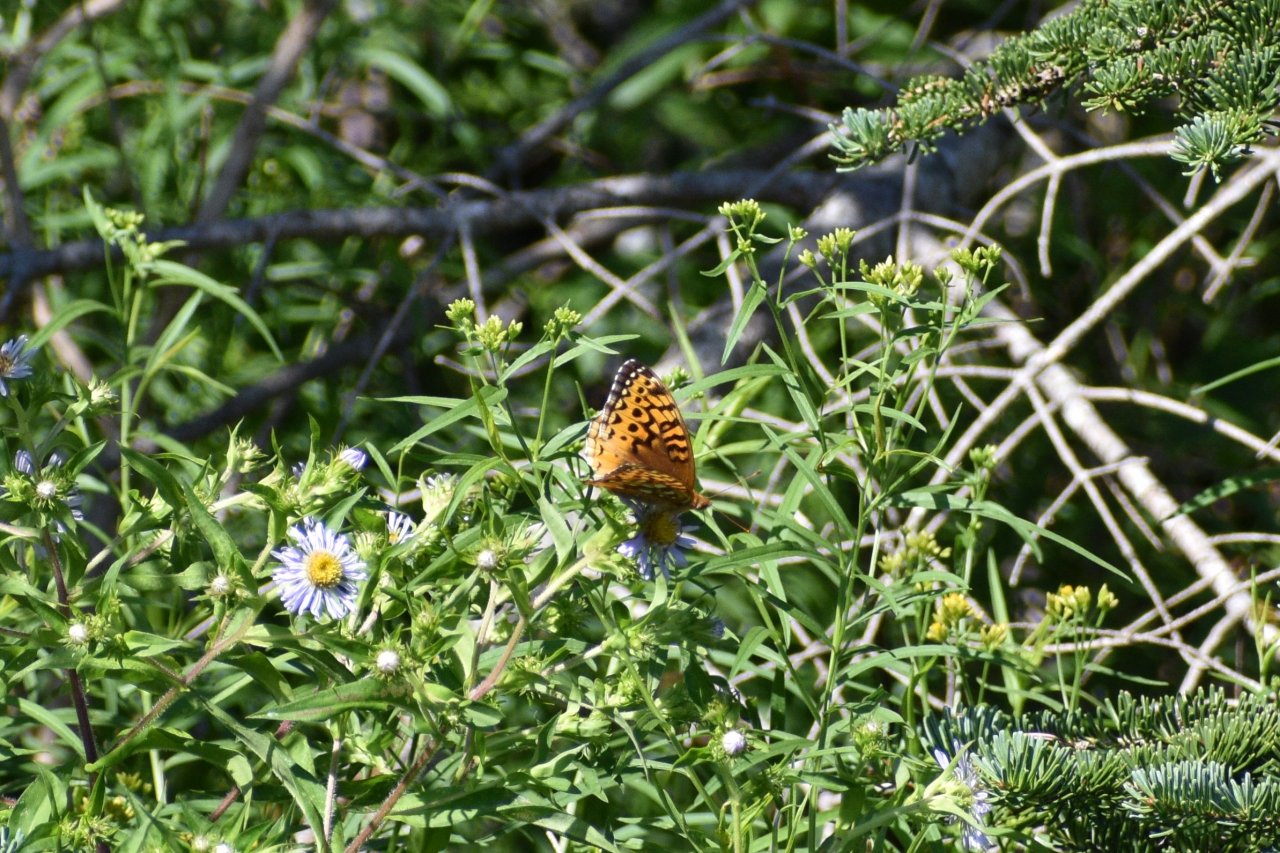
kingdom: Animalia
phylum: Arthropoda
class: Insecta
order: Lepidoptera
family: Nymphalidae
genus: Speyeria
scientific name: Speyeria cybele
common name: Great Spangled Fritillary
